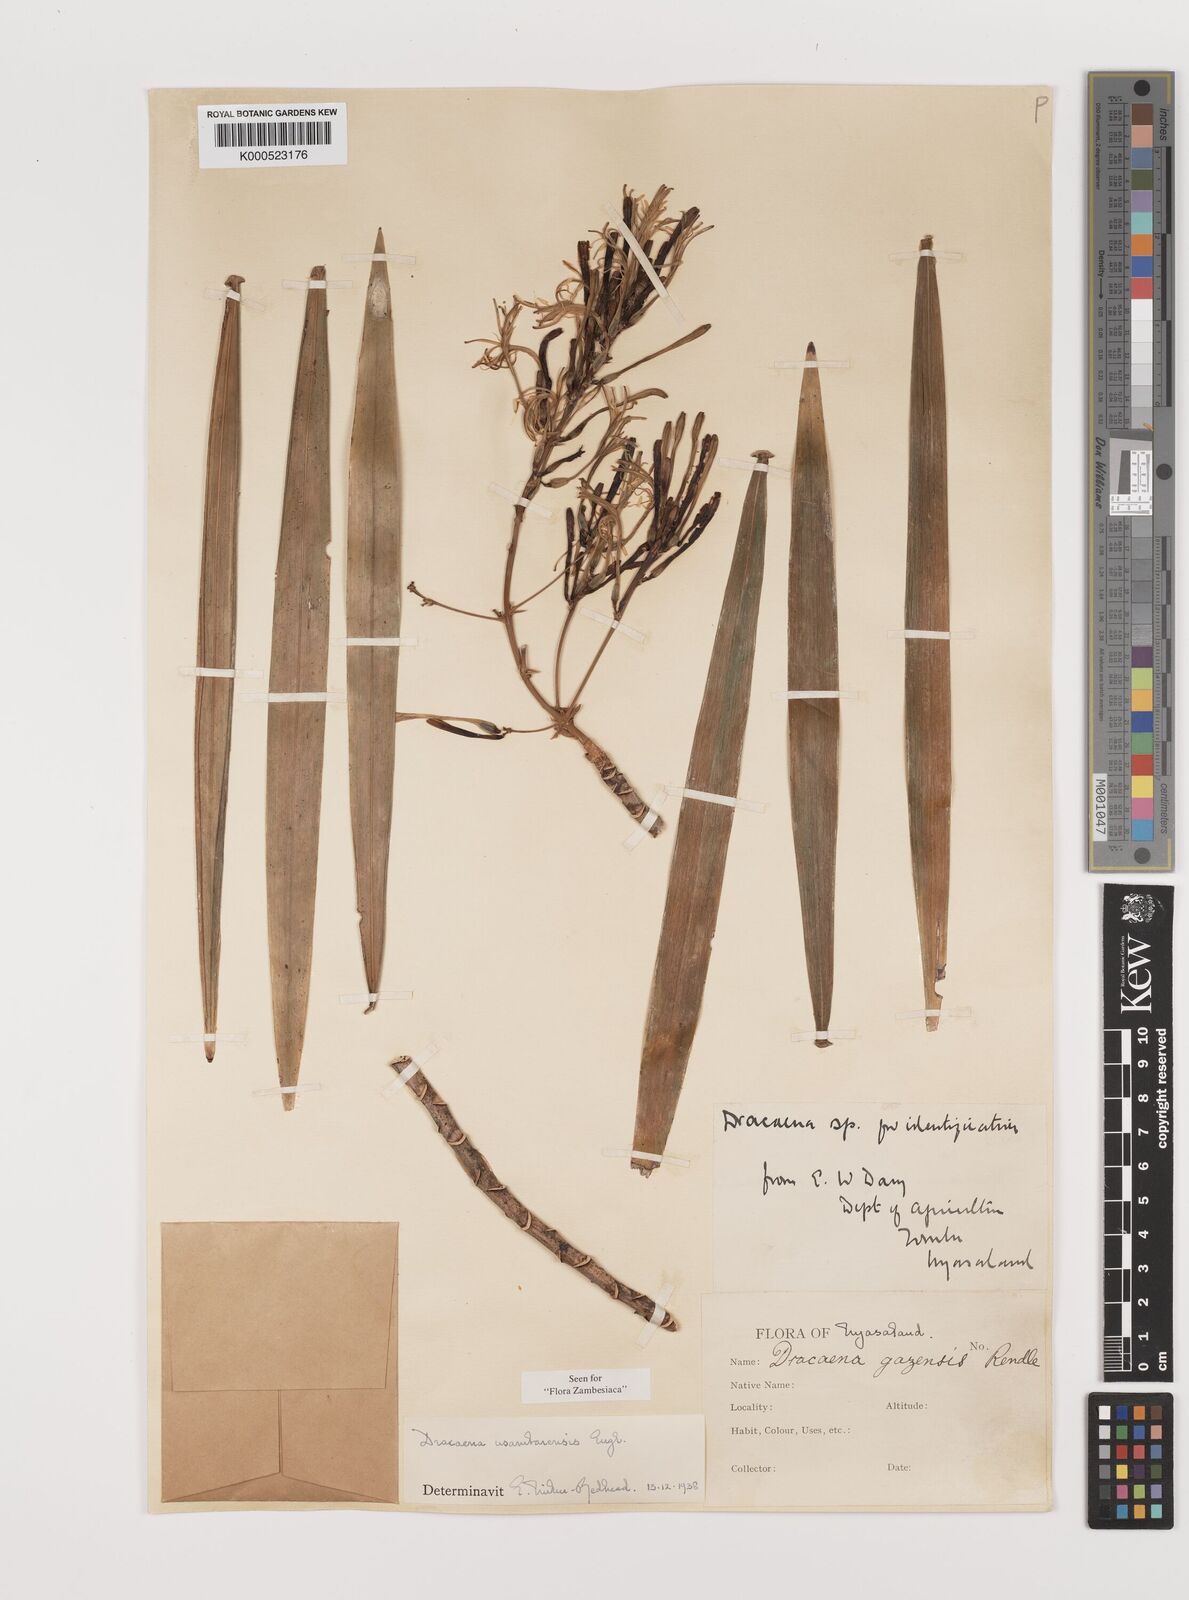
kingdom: Plantae
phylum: Tracheophyta
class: Liliopsida
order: Asparagales
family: Asparagaceae
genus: Dracaena
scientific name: Dracaena usambarensis
